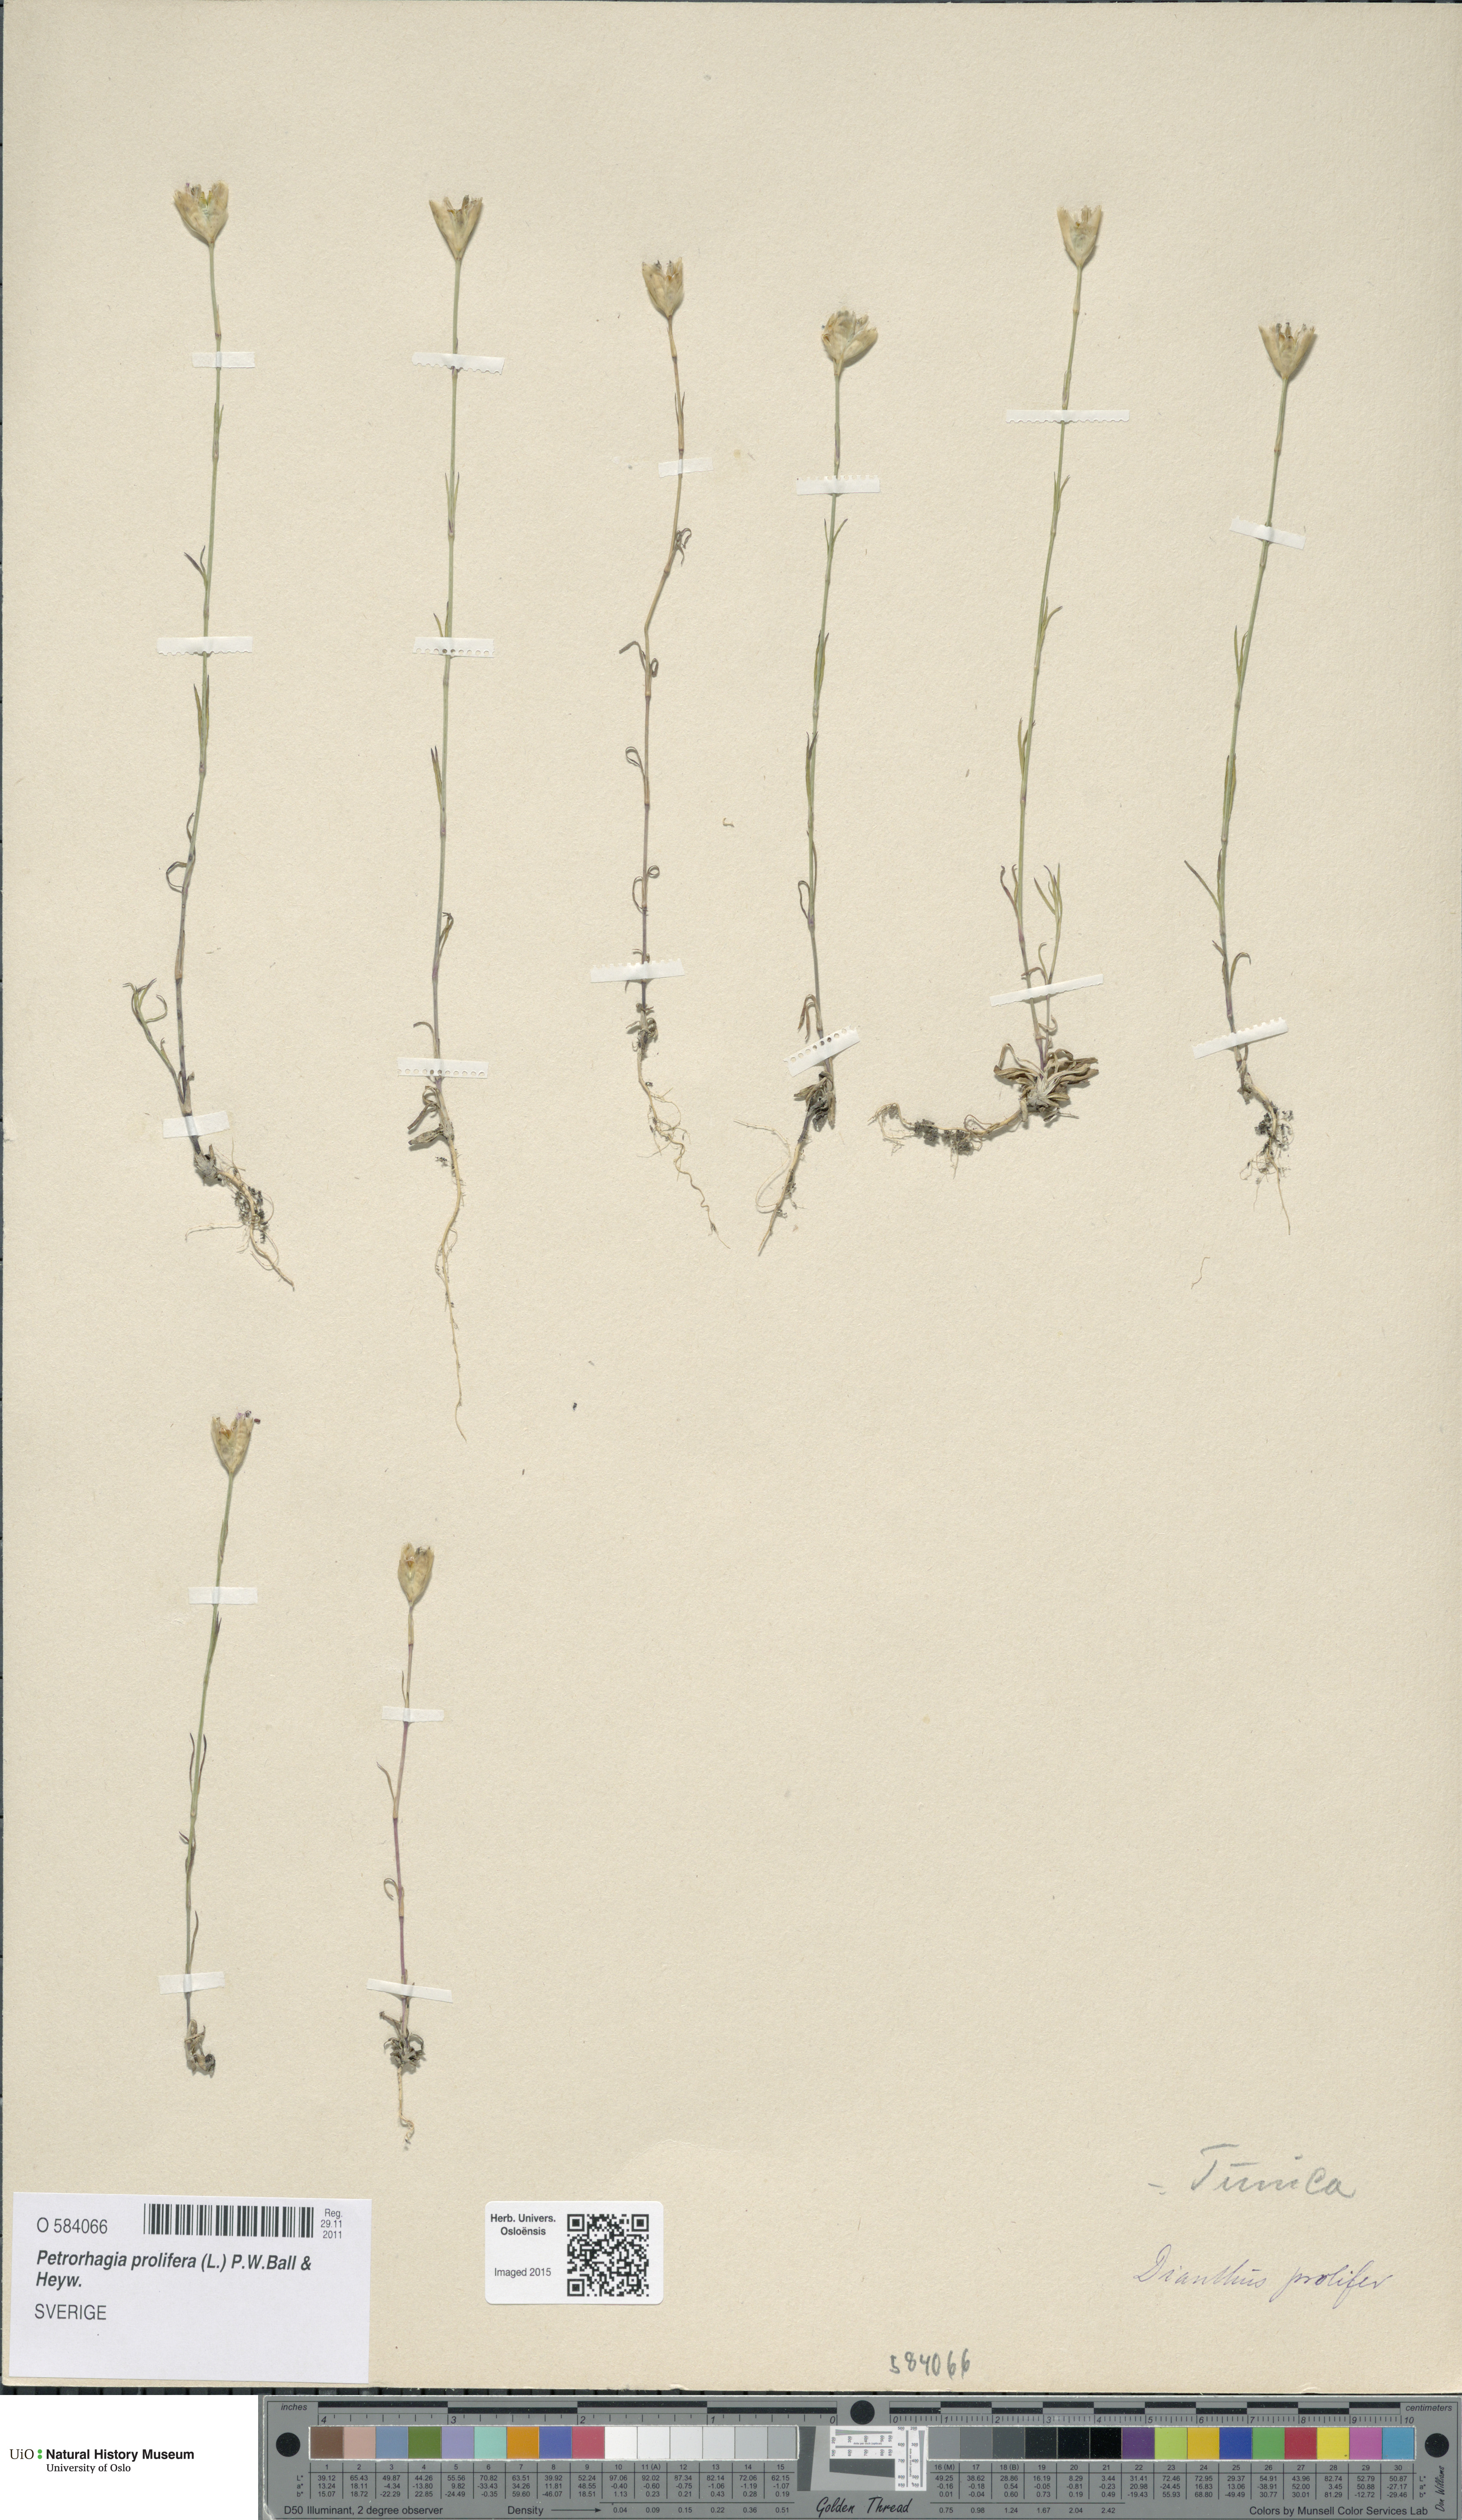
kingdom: Plantae
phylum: Tracheophyta
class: Magnoliopsida
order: Caryophyllales
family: Caryophyllaceae
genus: Petrorhagia
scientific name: Petrorhagia prolifera
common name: Proliferous pink
